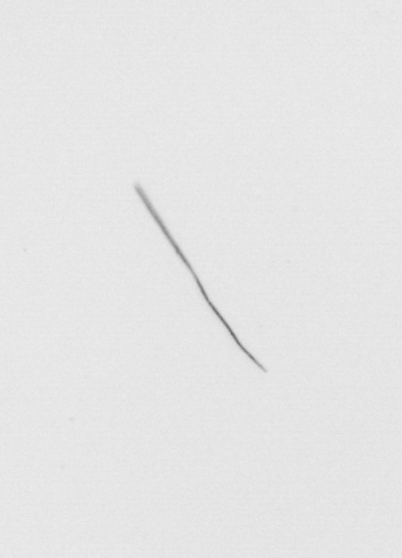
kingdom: Chromista
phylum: Ochrophyta
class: Bacillariophyceae
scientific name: Bacillariophyceae
